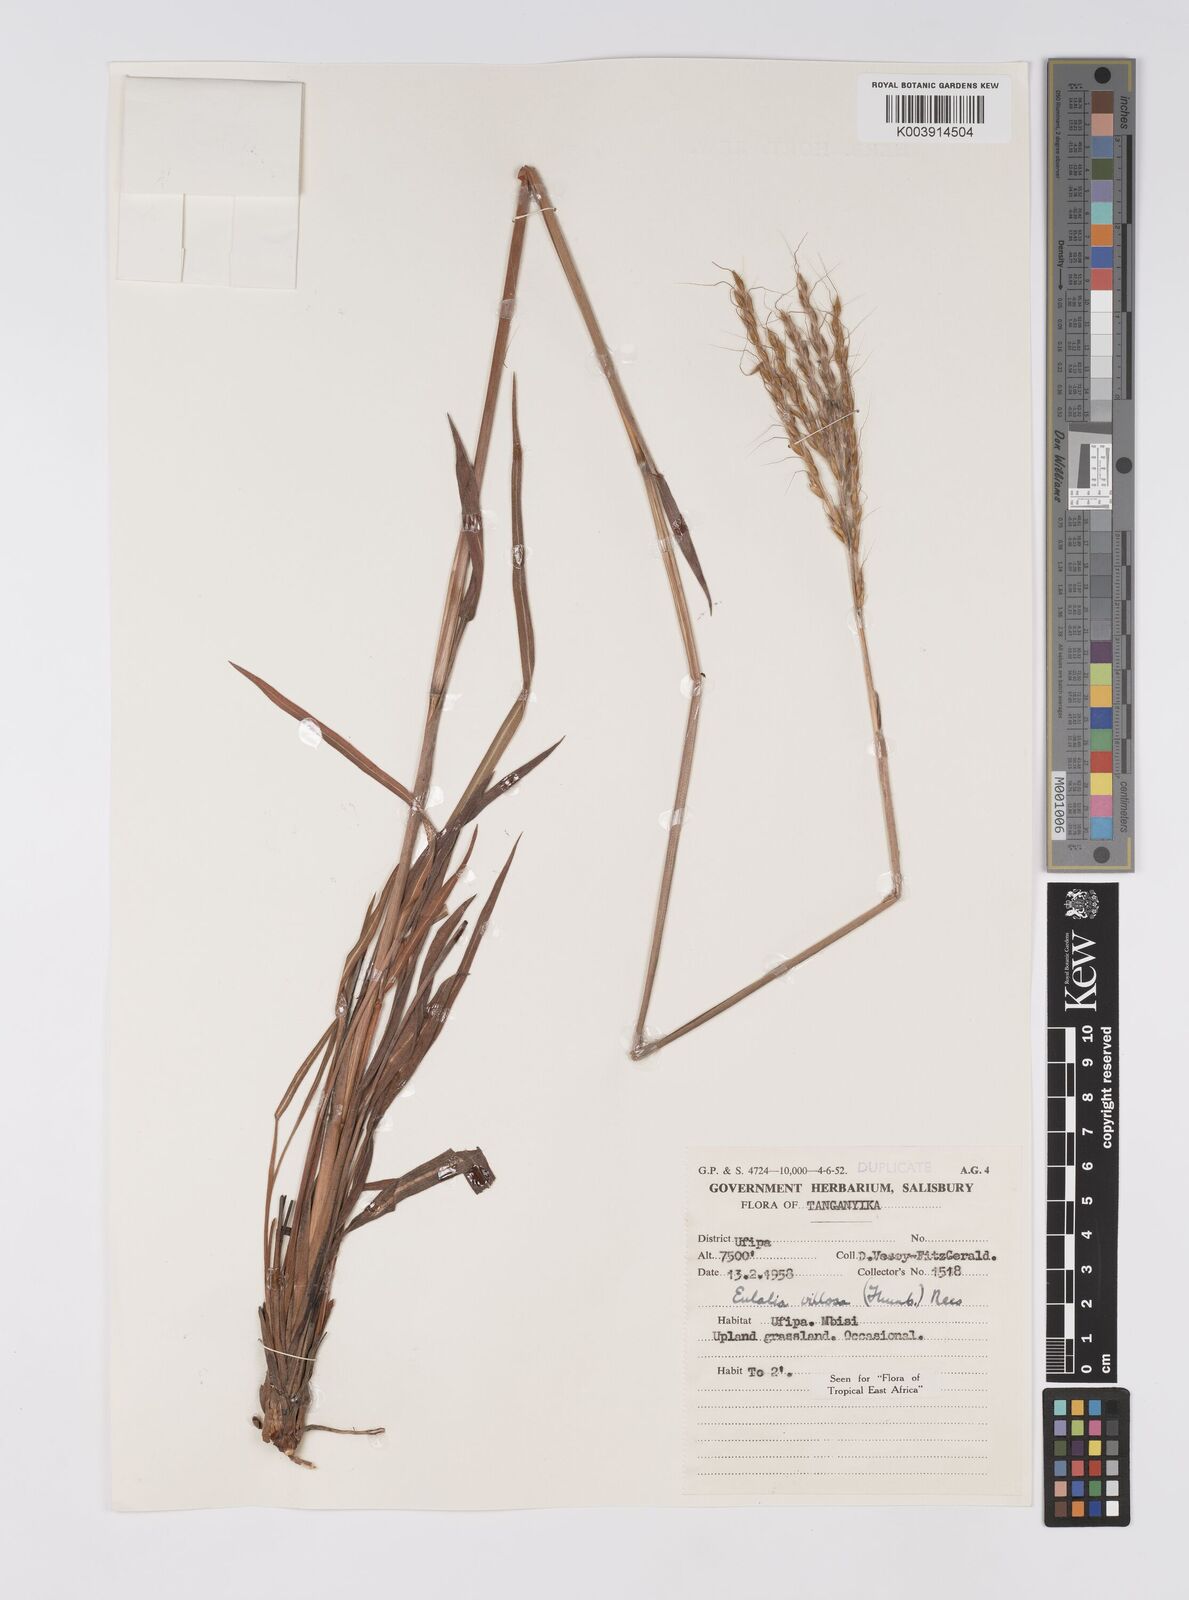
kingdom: Plantae
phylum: Tracheophyta
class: Liliopsida
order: Poales
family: Poaceae
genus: Eulalia
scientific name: Eulalia villosa
